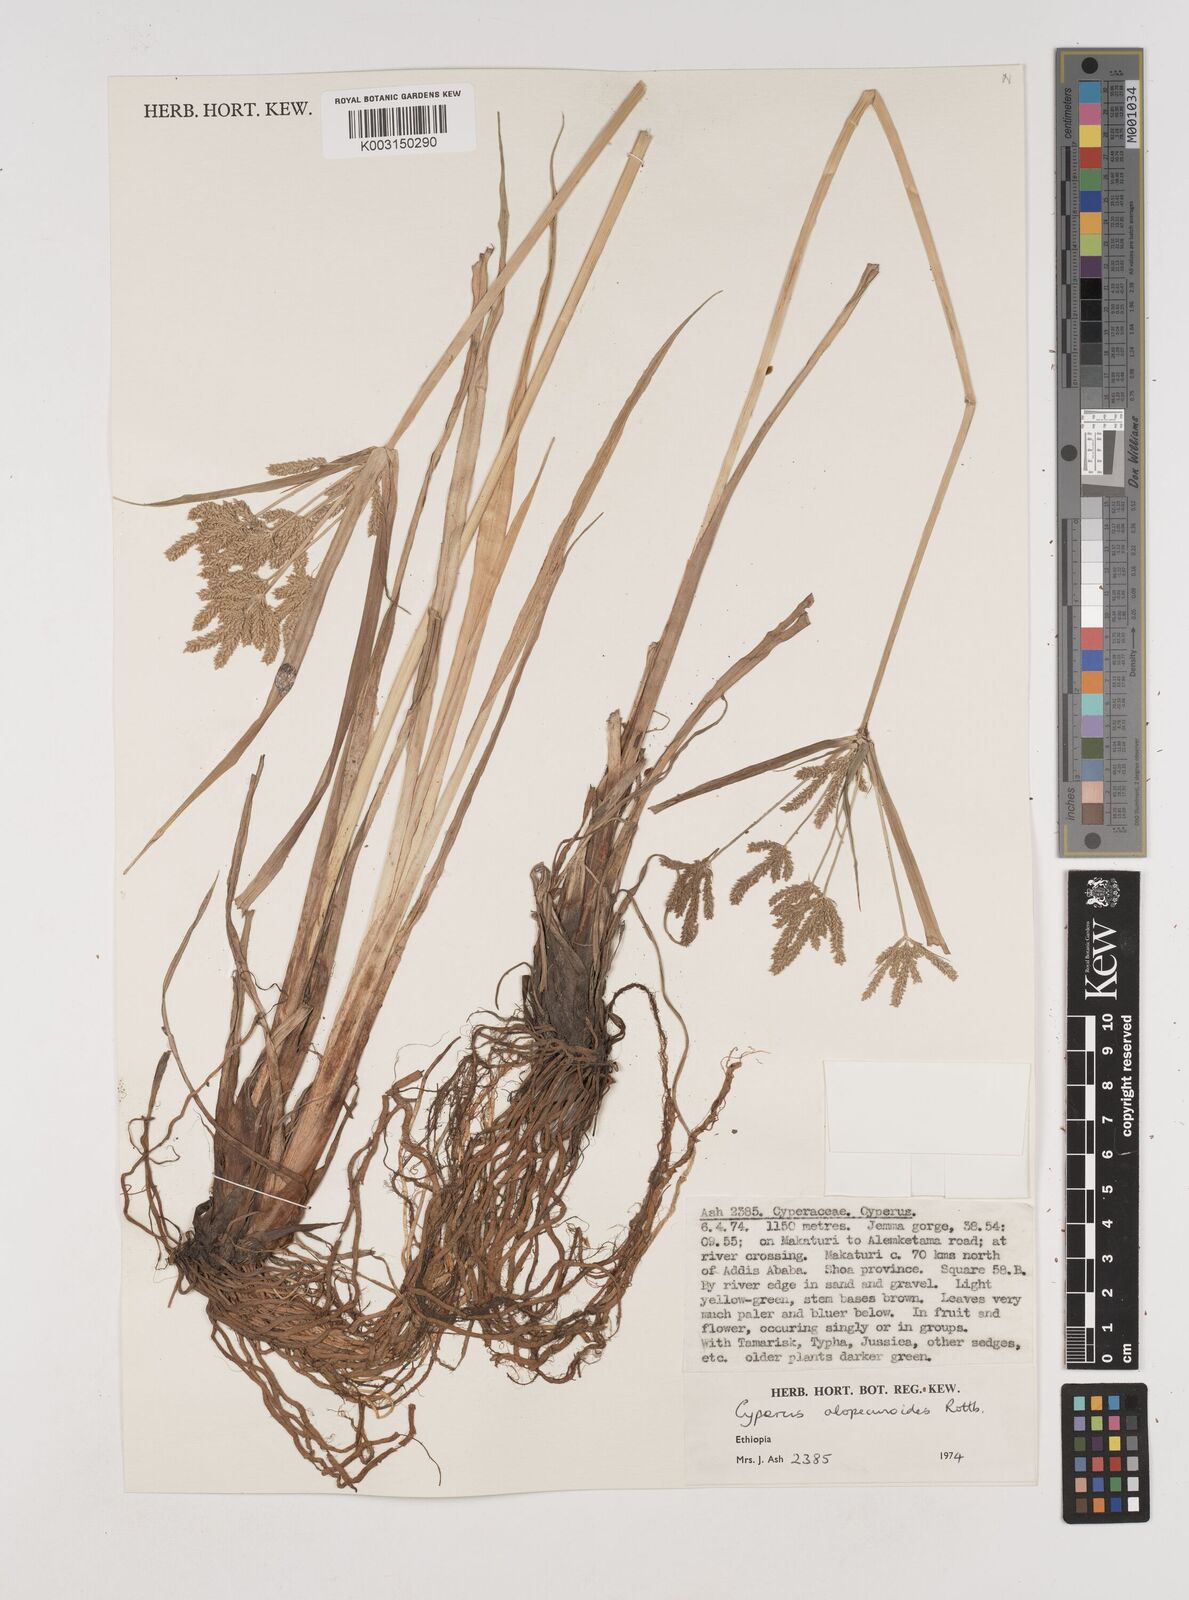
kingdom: Plantae
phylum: Tracheophyta
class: Liliopsida
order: Poales
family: Cyperaceae
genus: Cyperus
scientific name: Cyperus alopecuroides
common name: Foxtail flatsedge
